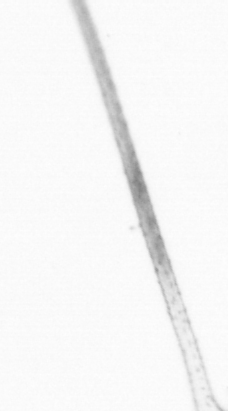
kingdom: Animalia
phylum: Arthropoda
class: Copepoda
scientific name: Copepoda
